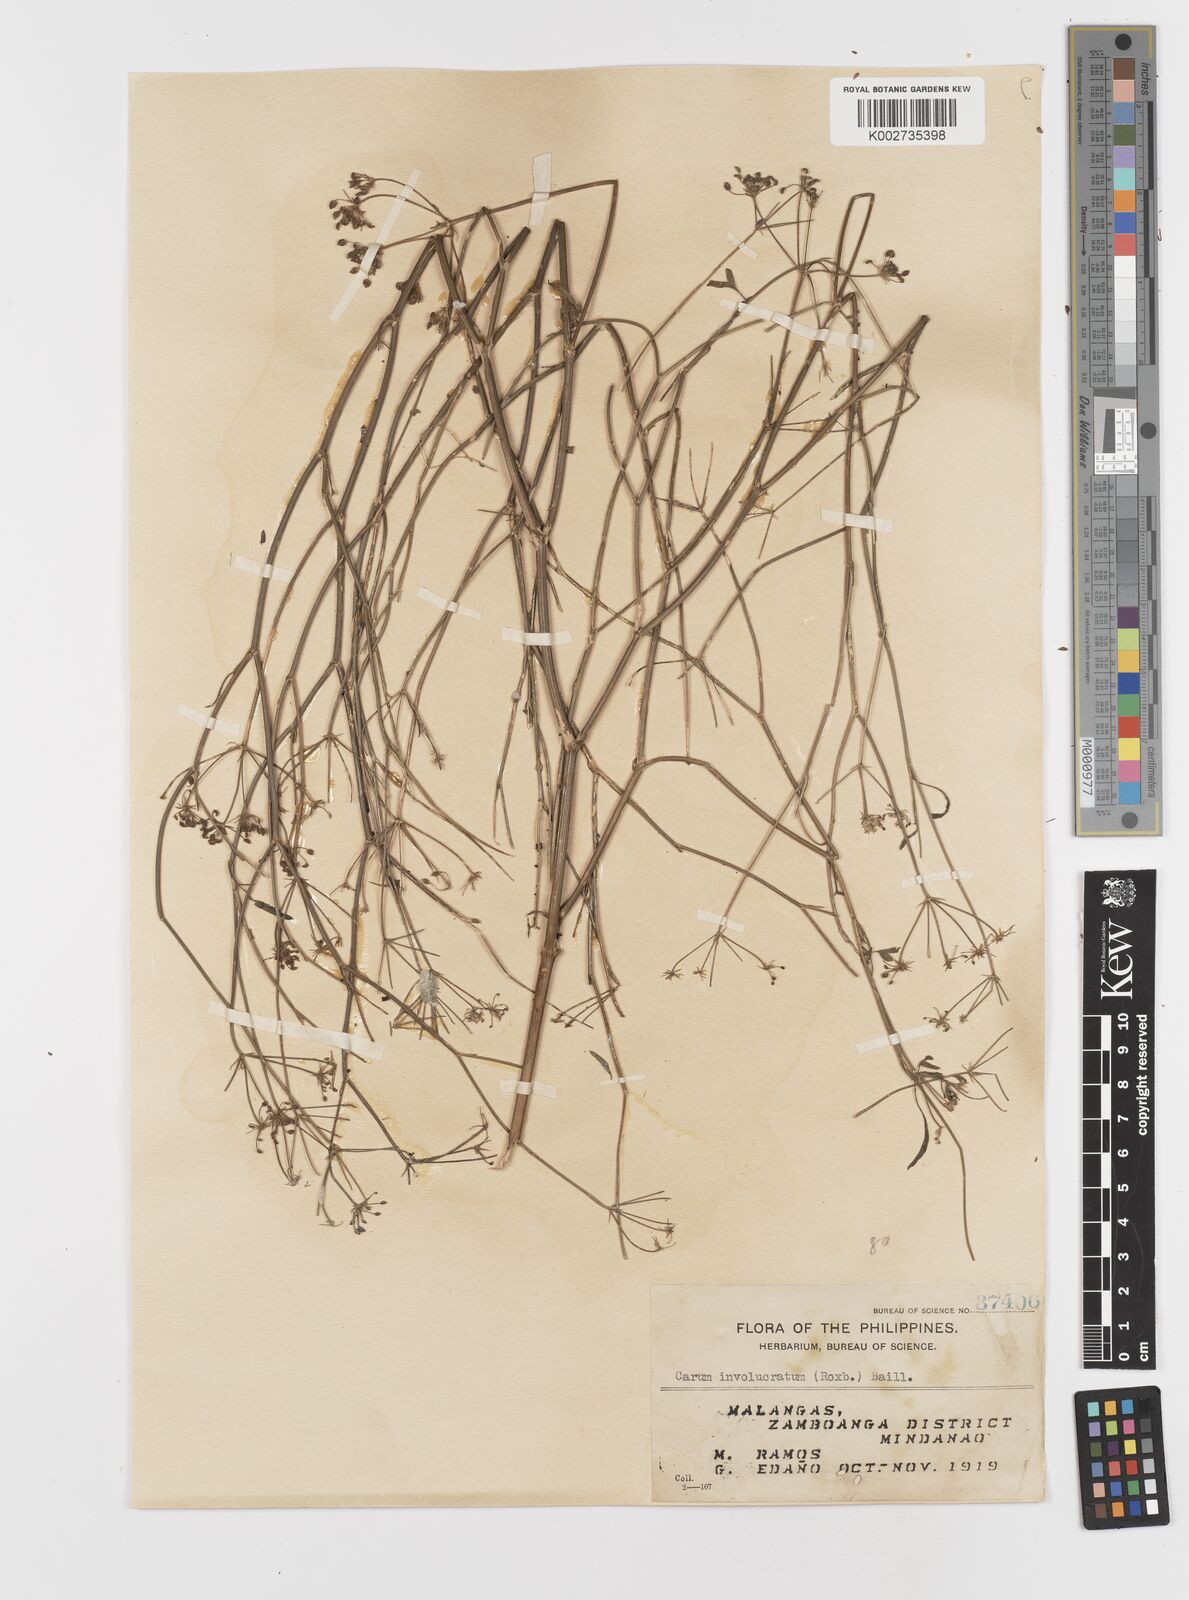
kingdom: Plantae
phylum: Tracheophyta
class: Magnoliopsida
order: Apiales
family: Apiaceae
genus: Psammogeton
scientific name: Psammogeton involucratum
